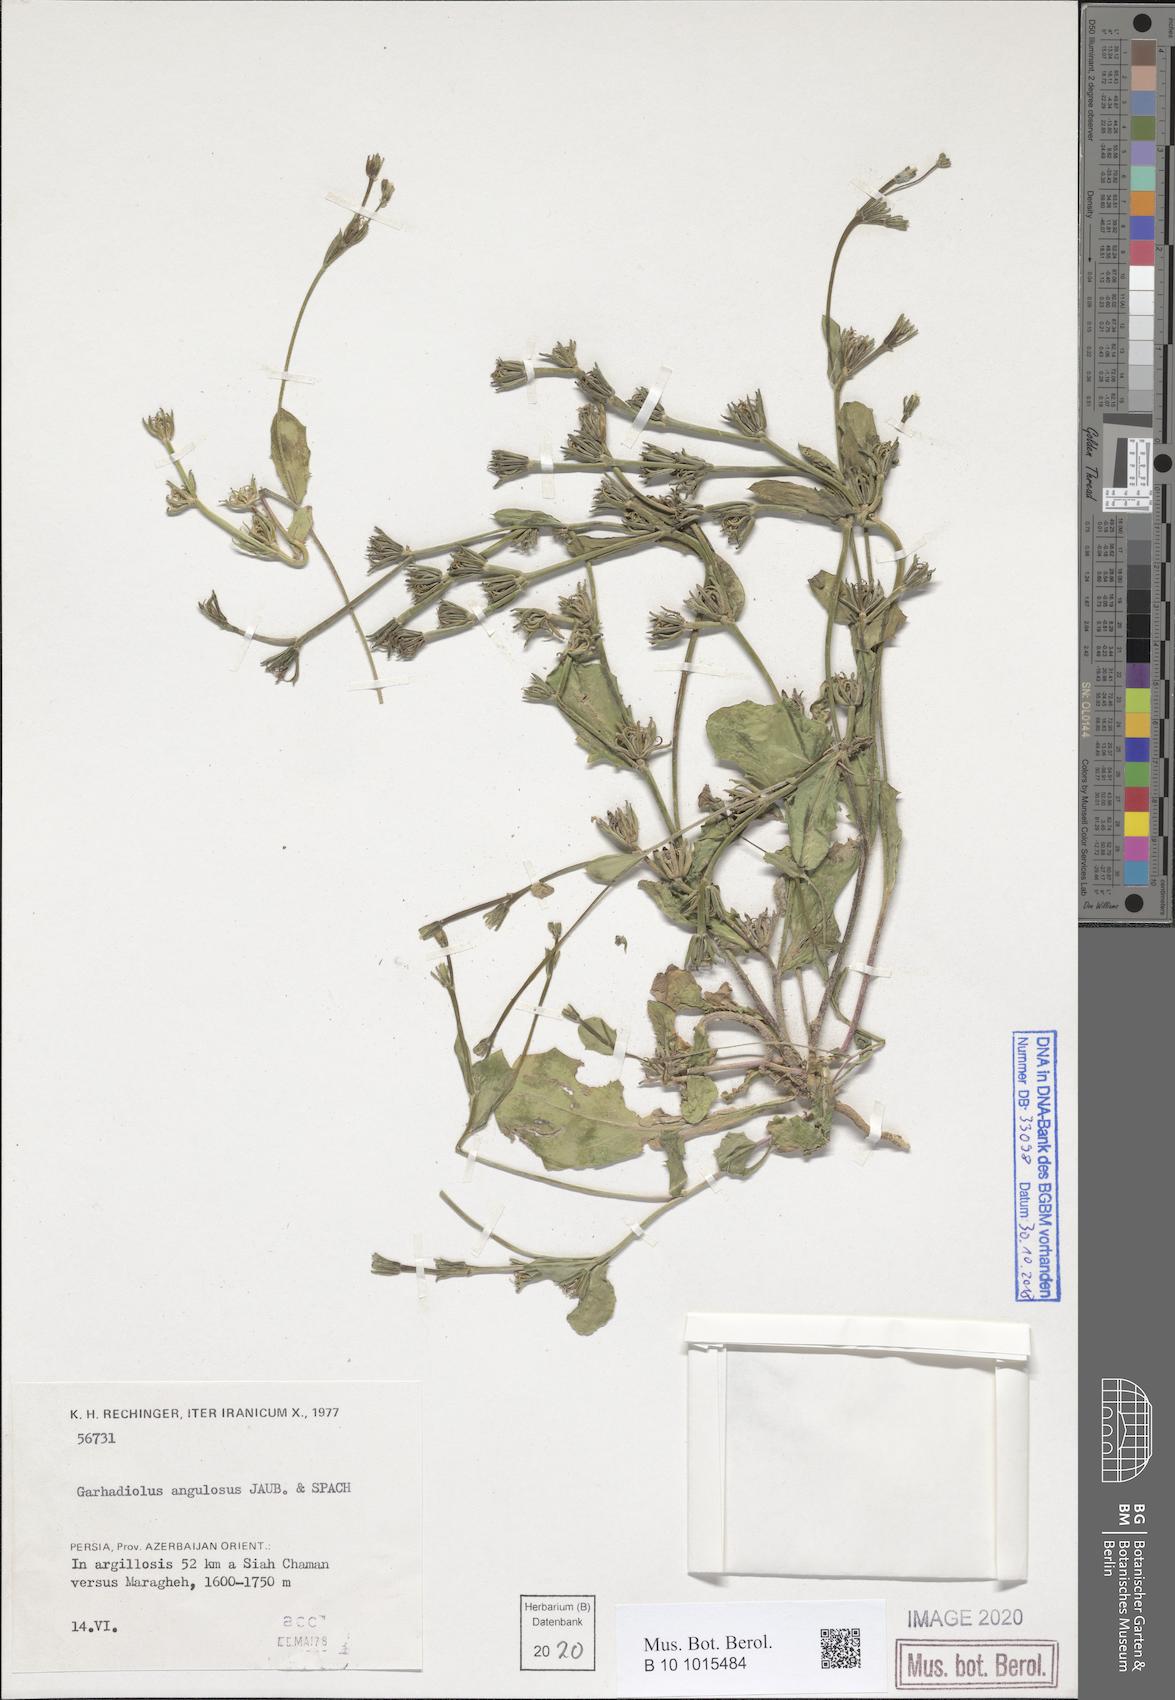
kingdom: Plantae
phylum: Tracheophyta
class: Magnoliopsida
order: Asterales
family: Asteraceae
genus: Garhadiolus
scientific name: Garhadiolus hedypnois
